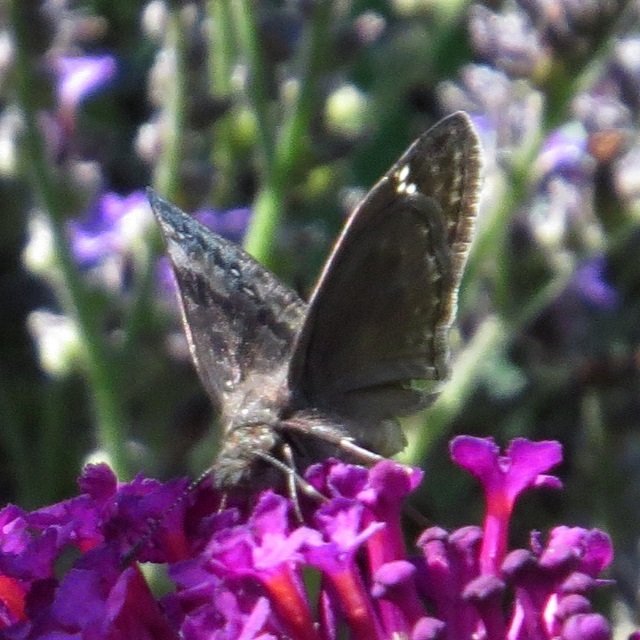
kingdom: Animalia
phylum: Arthropoda
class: Insecta
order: Lepidoptera
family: Hesperiidae
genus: Gesta
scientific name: Gesta
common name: Wild Indigo Duskywing
